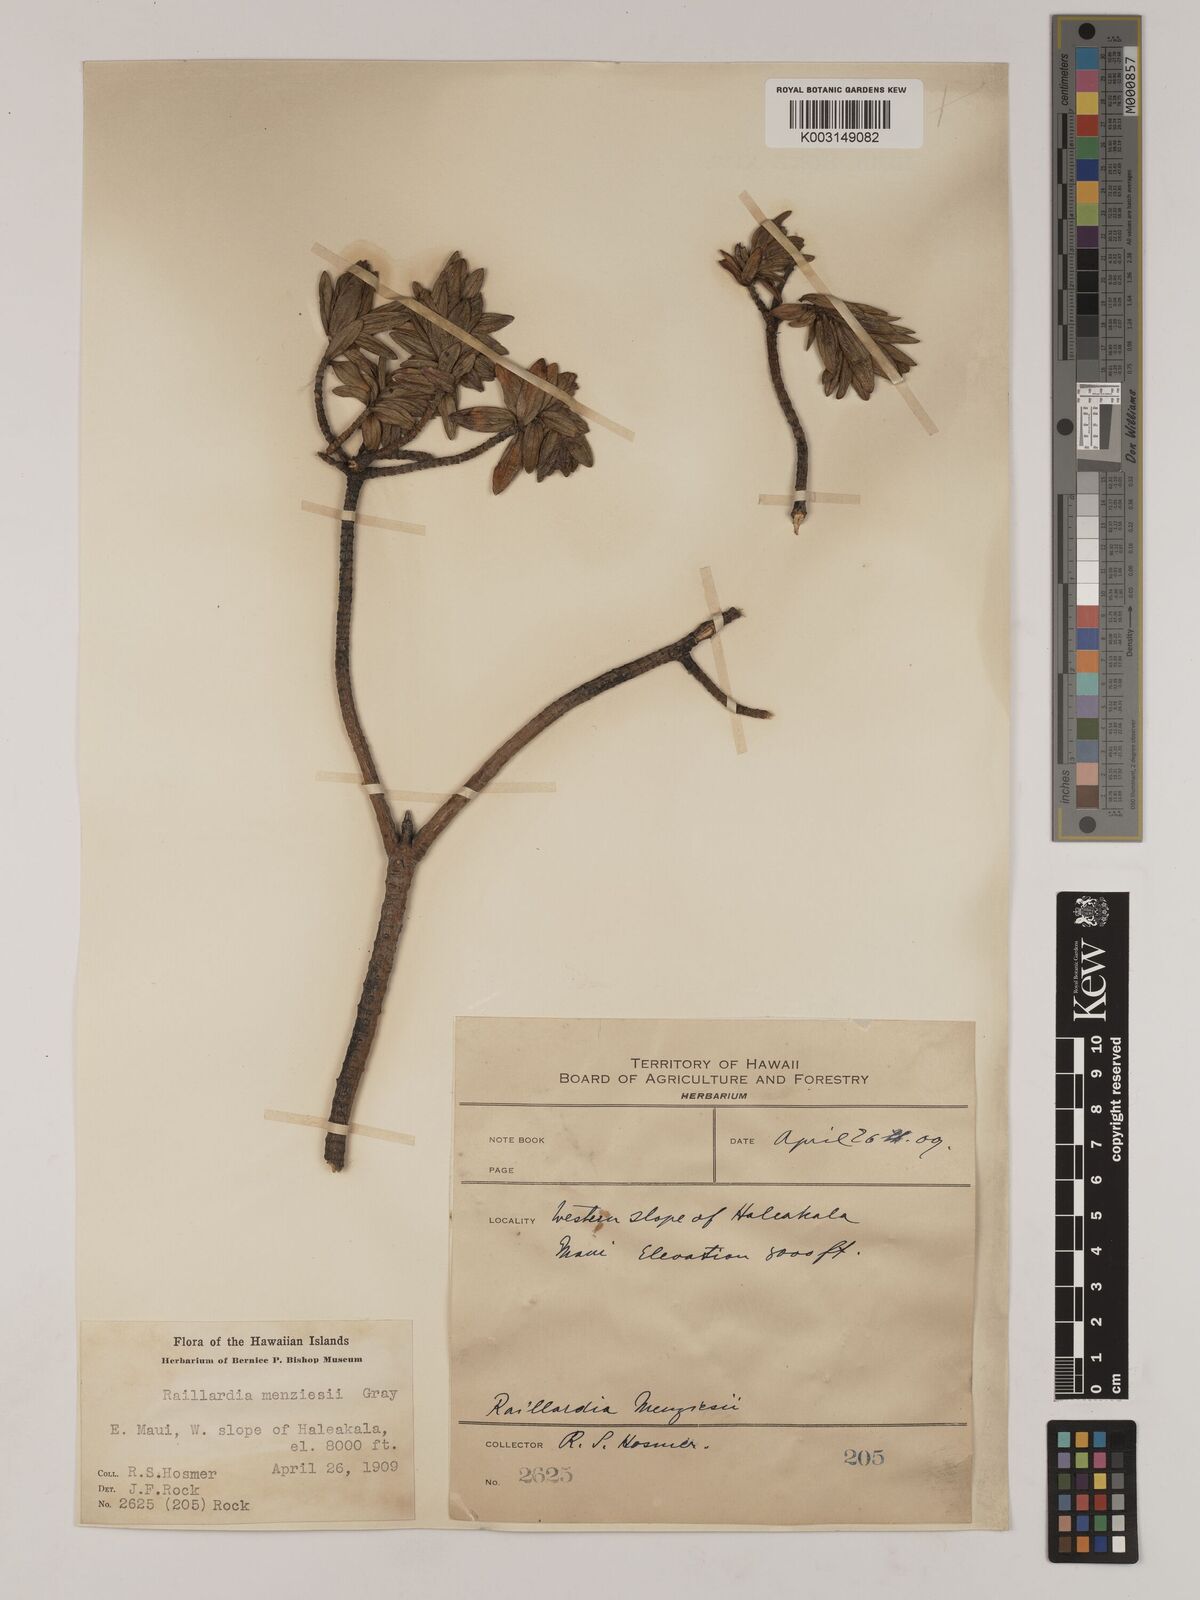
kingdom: Plantae
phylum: Tracheophyta
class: Magnoliopsida
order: Asterales
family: Asteraceae
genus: Dubautia
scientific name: Dubautia menziesii
